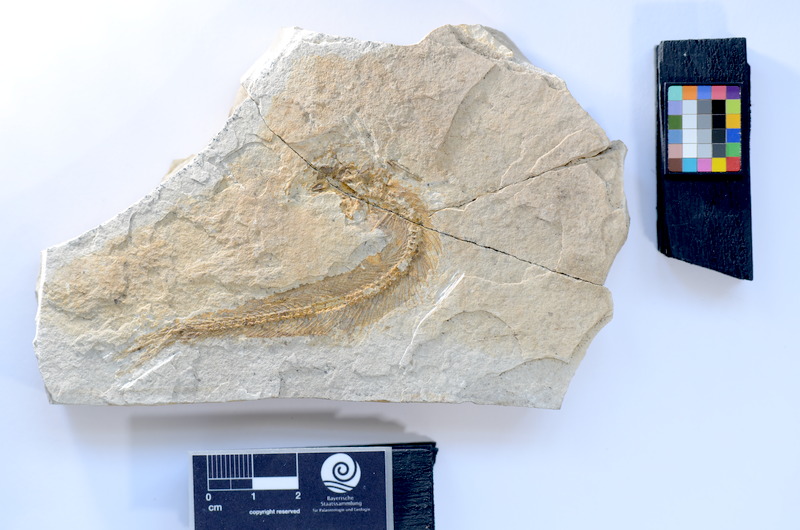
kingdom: Animalia
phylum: Chordata
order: Elopiformes
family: Anaethalionidae
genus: Anaethalion
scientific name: Anaethalion knorri
